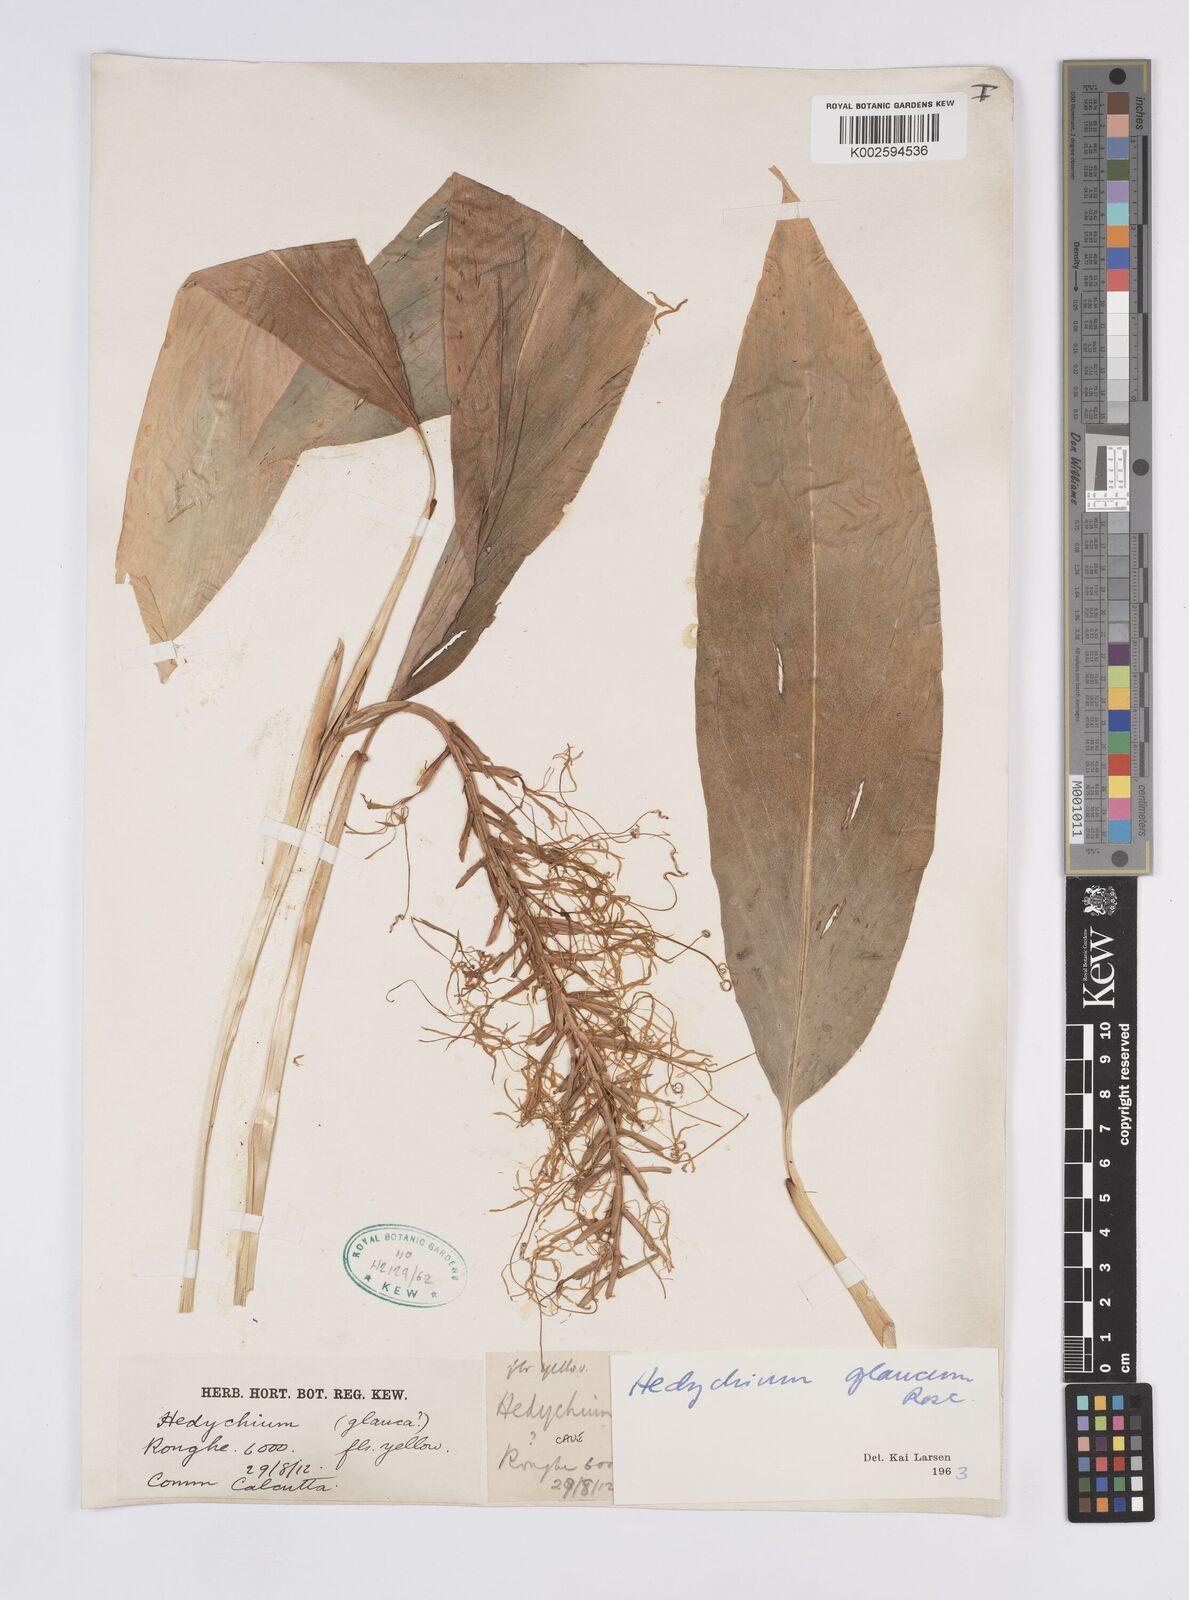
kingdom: Plantae
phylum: Tracheophyta
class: Liliopsida
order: Zingiberales
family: Zingiberaceae
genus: Hedychium
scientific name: Hedychium glaucum
